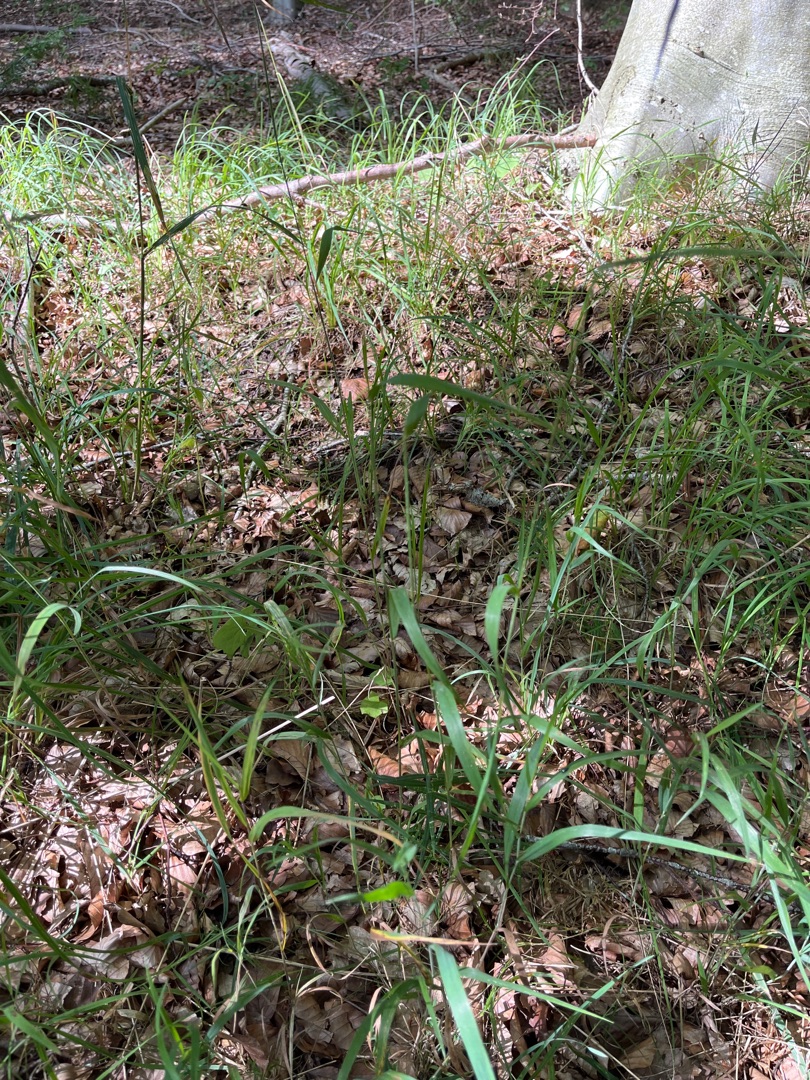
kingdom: Plantae
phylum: Tracheophyta
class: Liliopsida
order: Poales
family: Poaceae
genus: Elymus
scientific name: Elymus caninus
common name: Hundekvik
